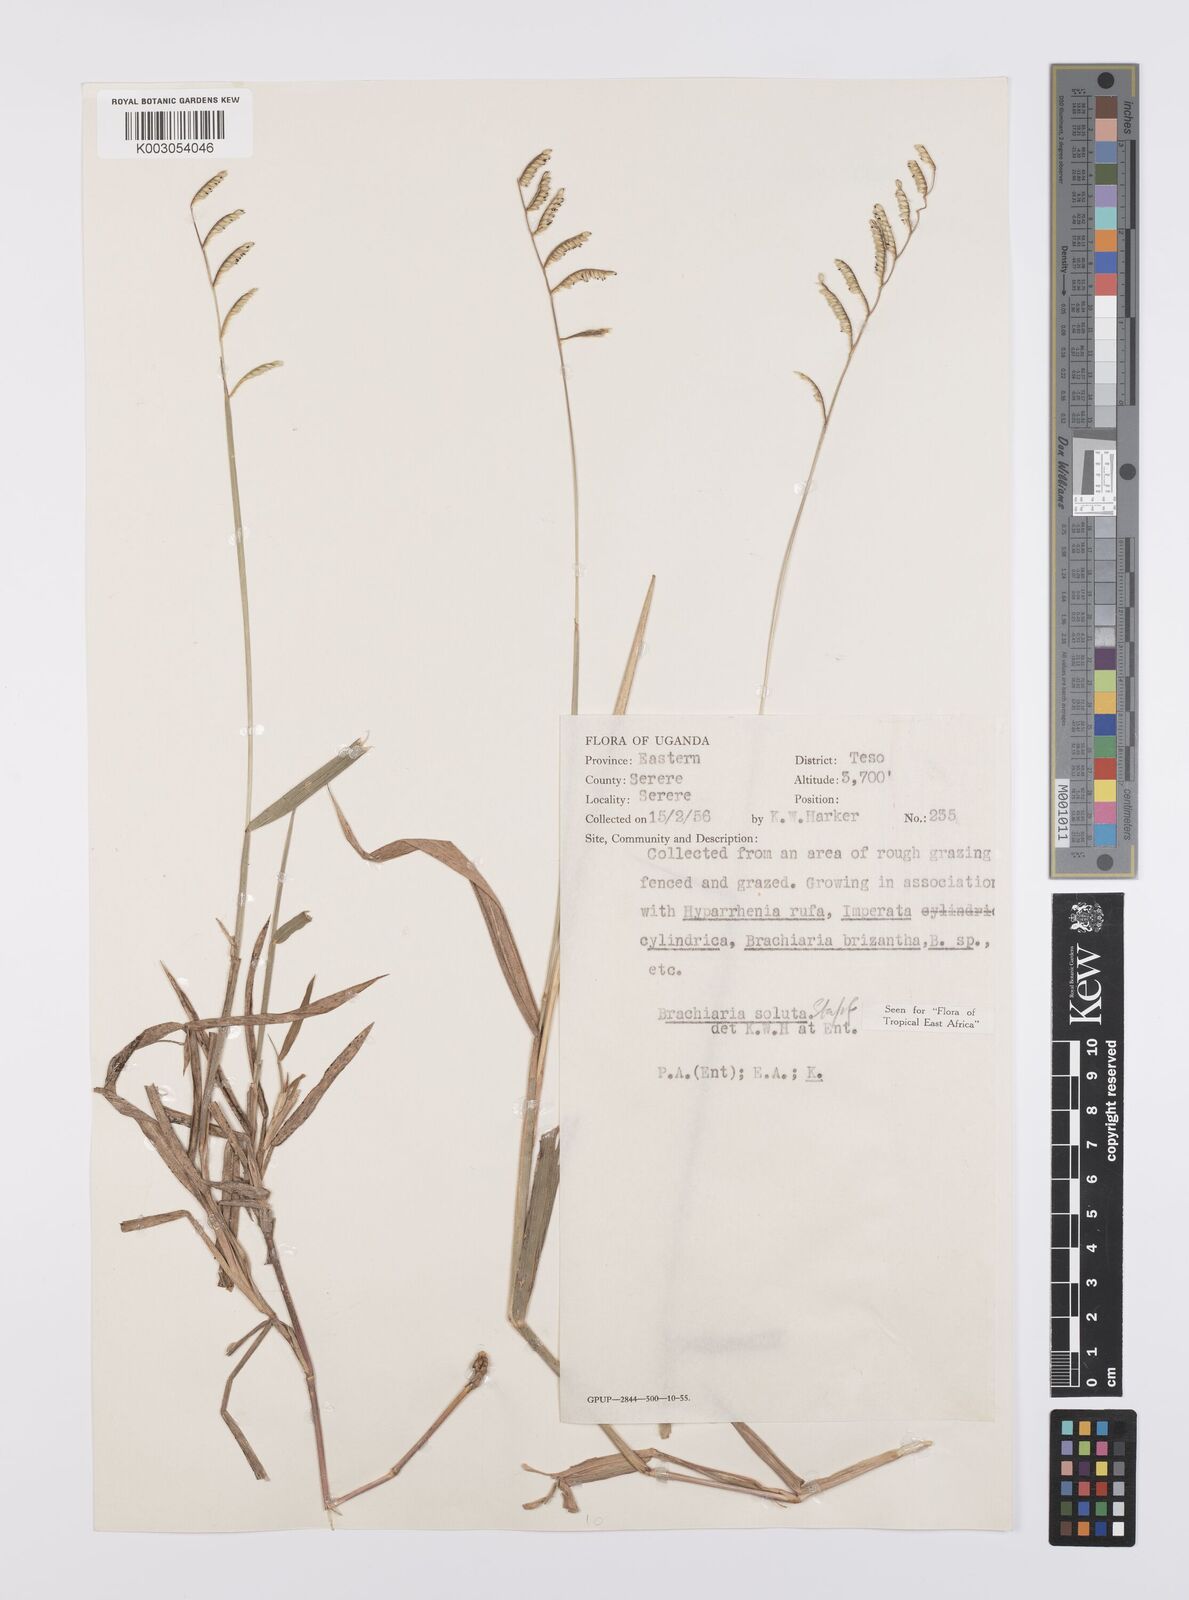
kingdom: Plantae
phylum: Tracheophyta
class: Liliopsida
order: Poales
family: Poaceae
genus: Urochloa
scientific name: Urochloa jubata
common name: Buffalograss
